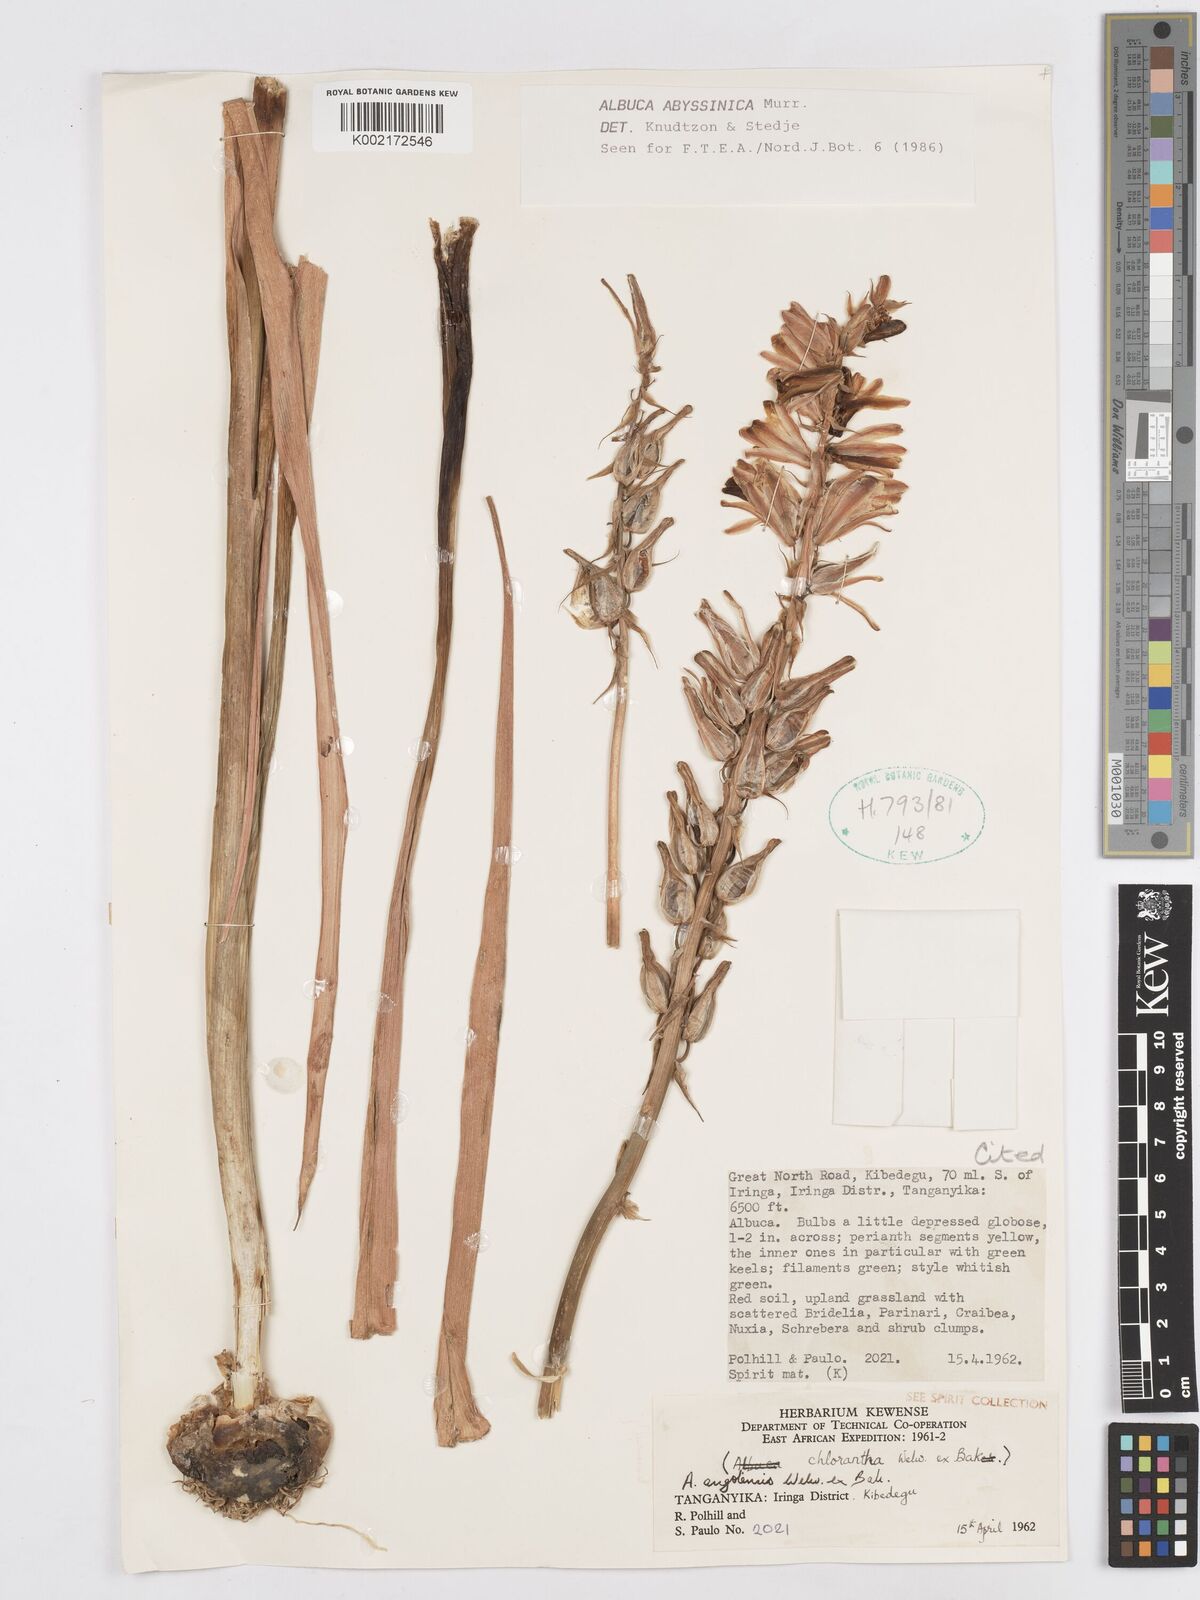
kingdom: Plantae
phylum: Tracheophyta
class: Liliopsida
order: Asparagales
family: Asparagaceae
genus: Albuca
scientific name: Albuca abyssinica
